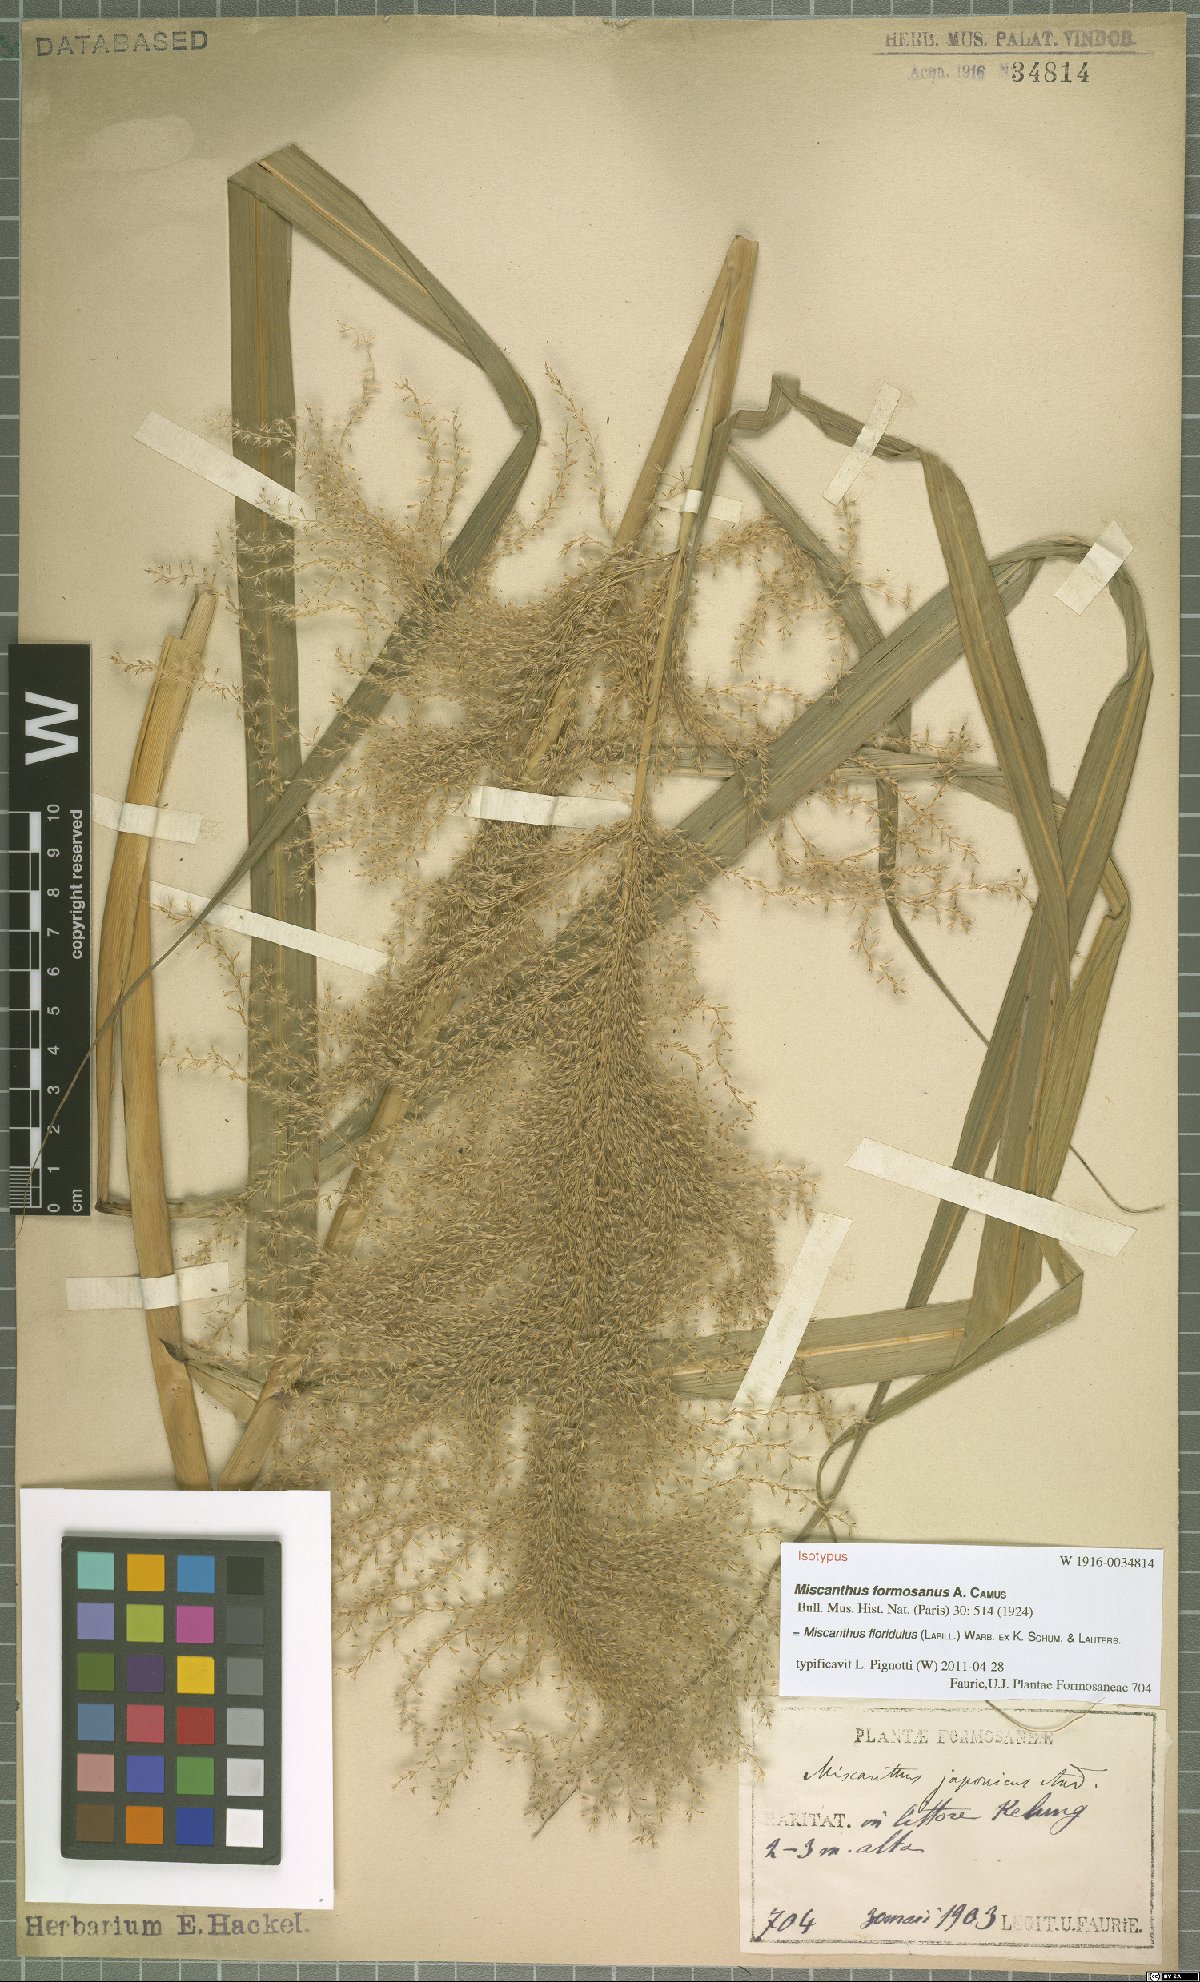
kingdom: Plantae
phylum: Tracheophyta
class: Liliopsida
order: Poales
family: Poaceae
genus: Miscanthus
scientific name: Miscanthus floridulus
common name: Pacific island silvergrass
